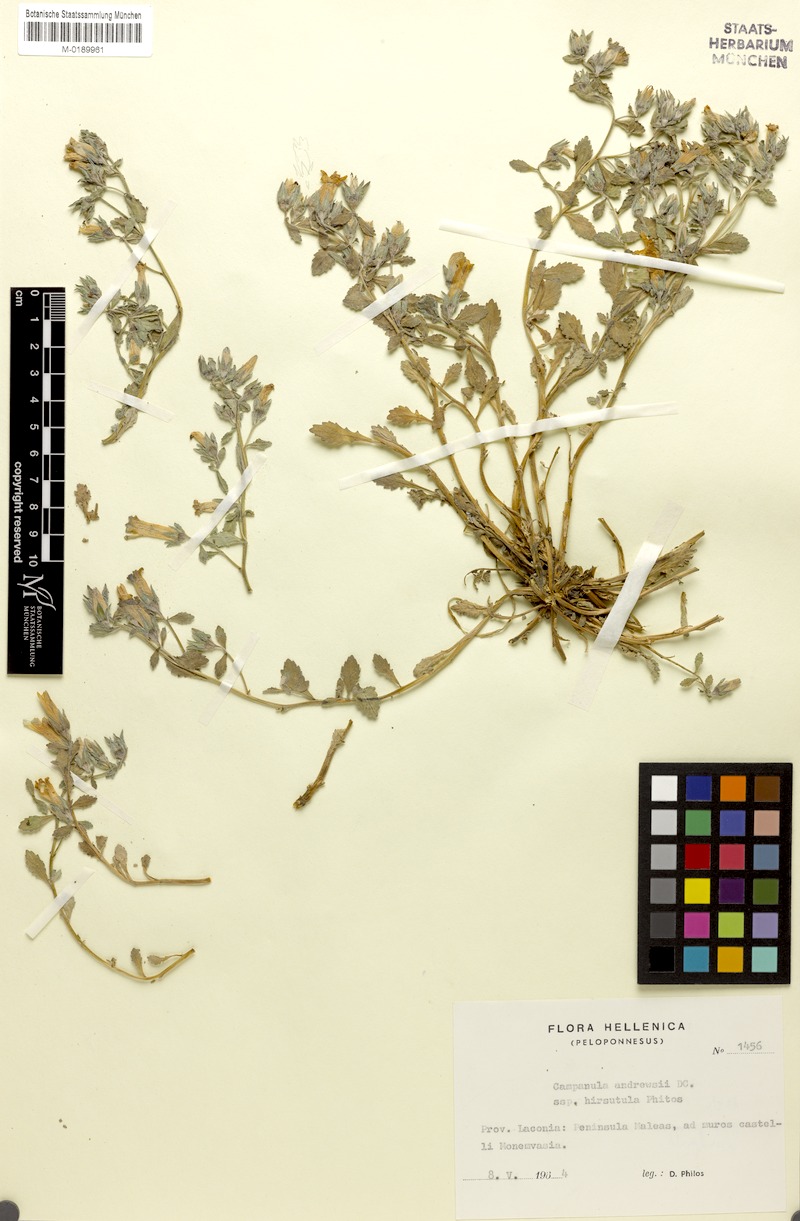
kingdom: Plantae
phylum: Tracheophyta
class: Magnoliopsida
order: Asterales
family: Campanulaceae
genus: Campanula
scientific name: Campanula andrewsii
